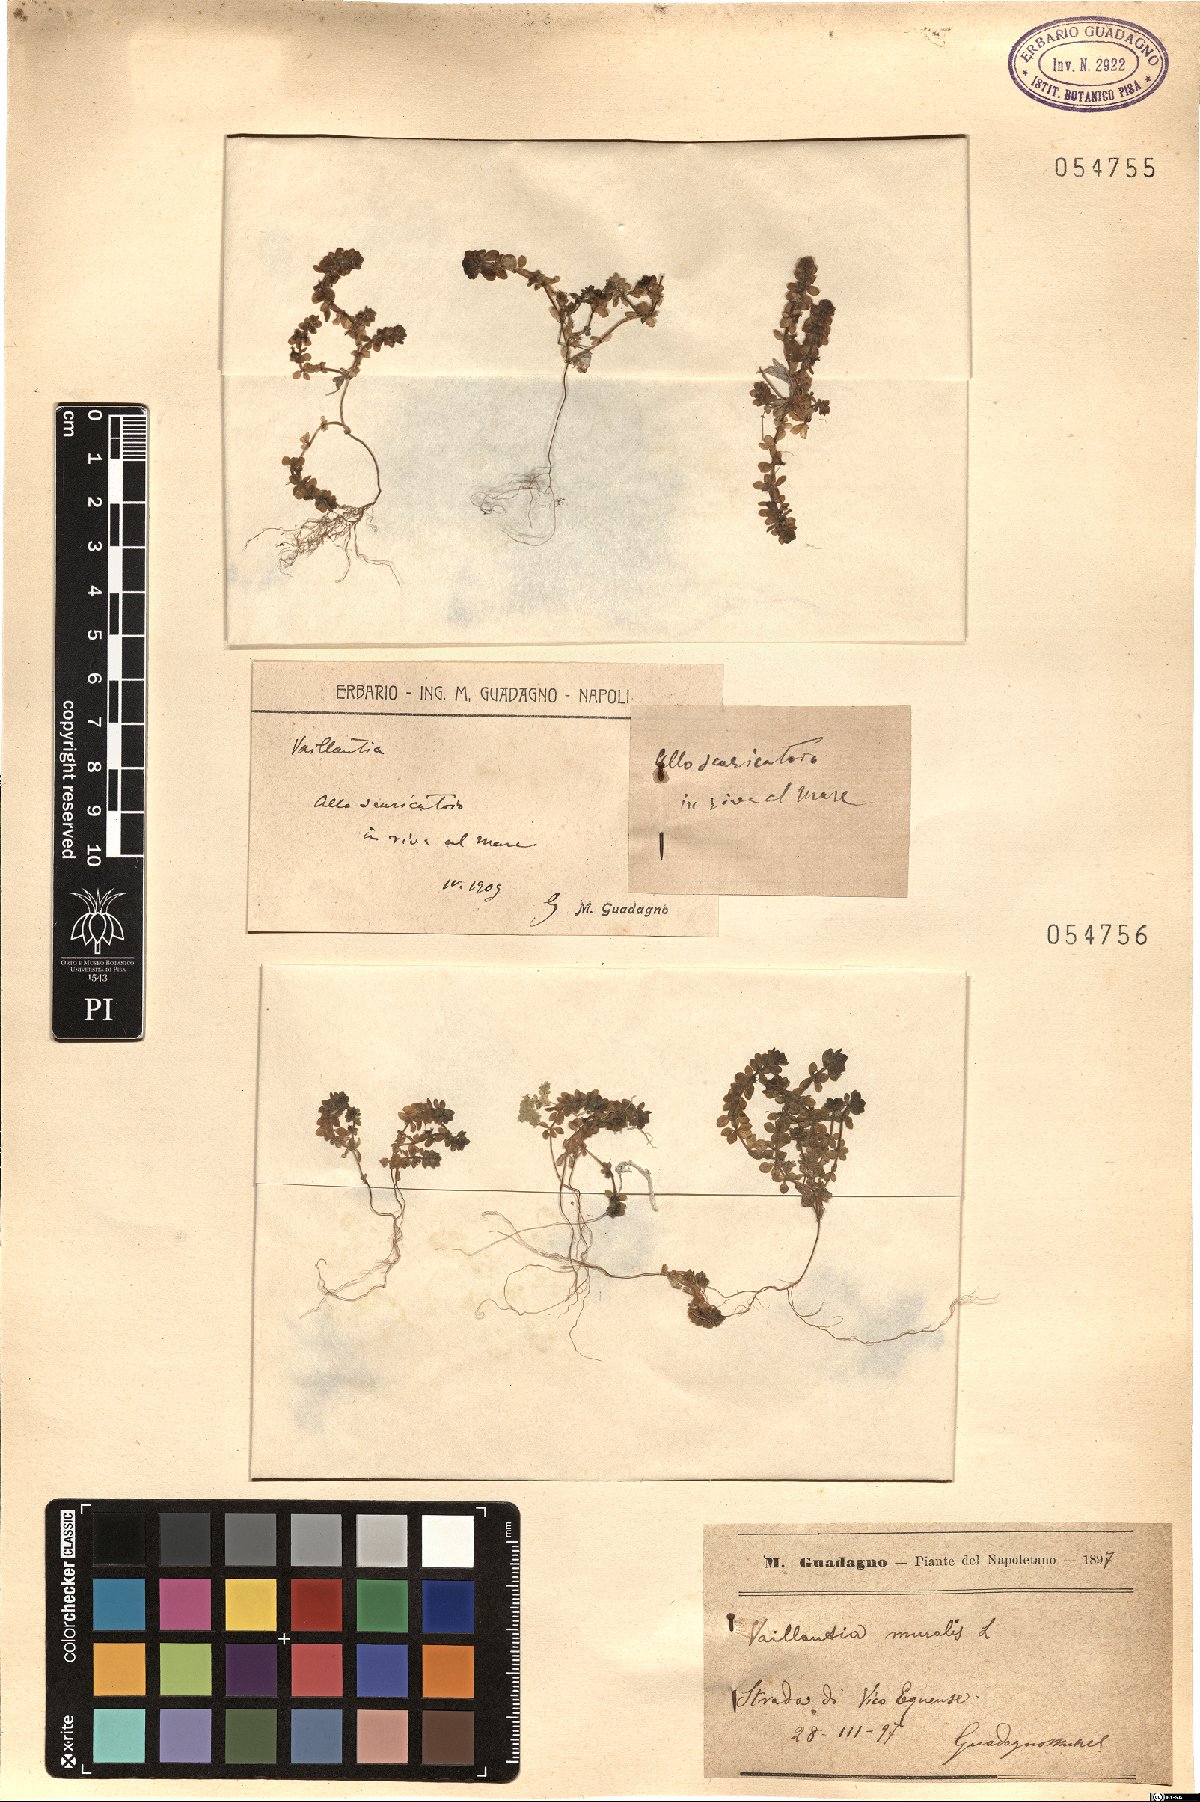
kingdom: Plantae
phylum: Tracheophyta
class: Magnoliopsida
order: Gentianales
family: Rubiaceae
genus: Valantia
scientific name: Valantia muralis
